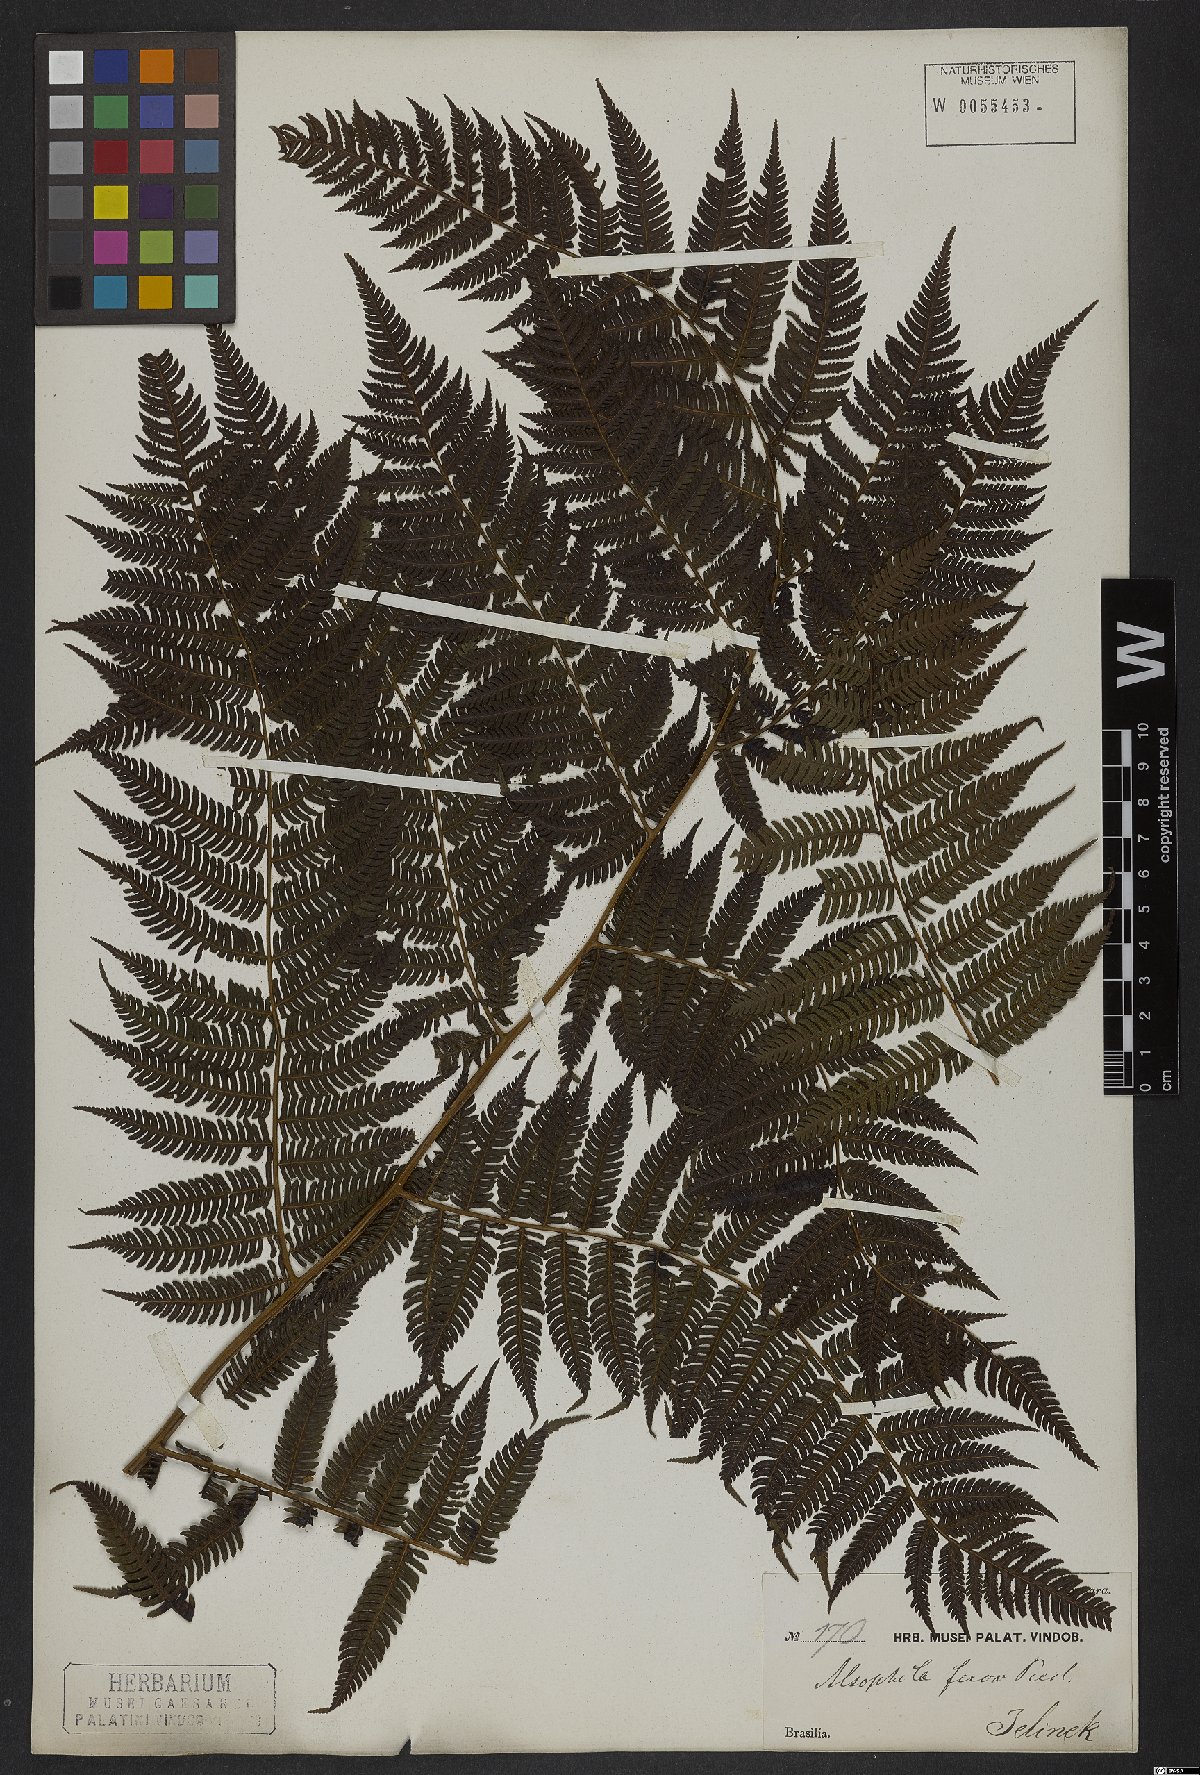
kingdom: Plantae
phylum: Tracheophyta
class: Polypodiopsida
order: Cyatheales
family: Cyatheaceae
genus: Cyathea
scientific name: Cyathea microdonta
